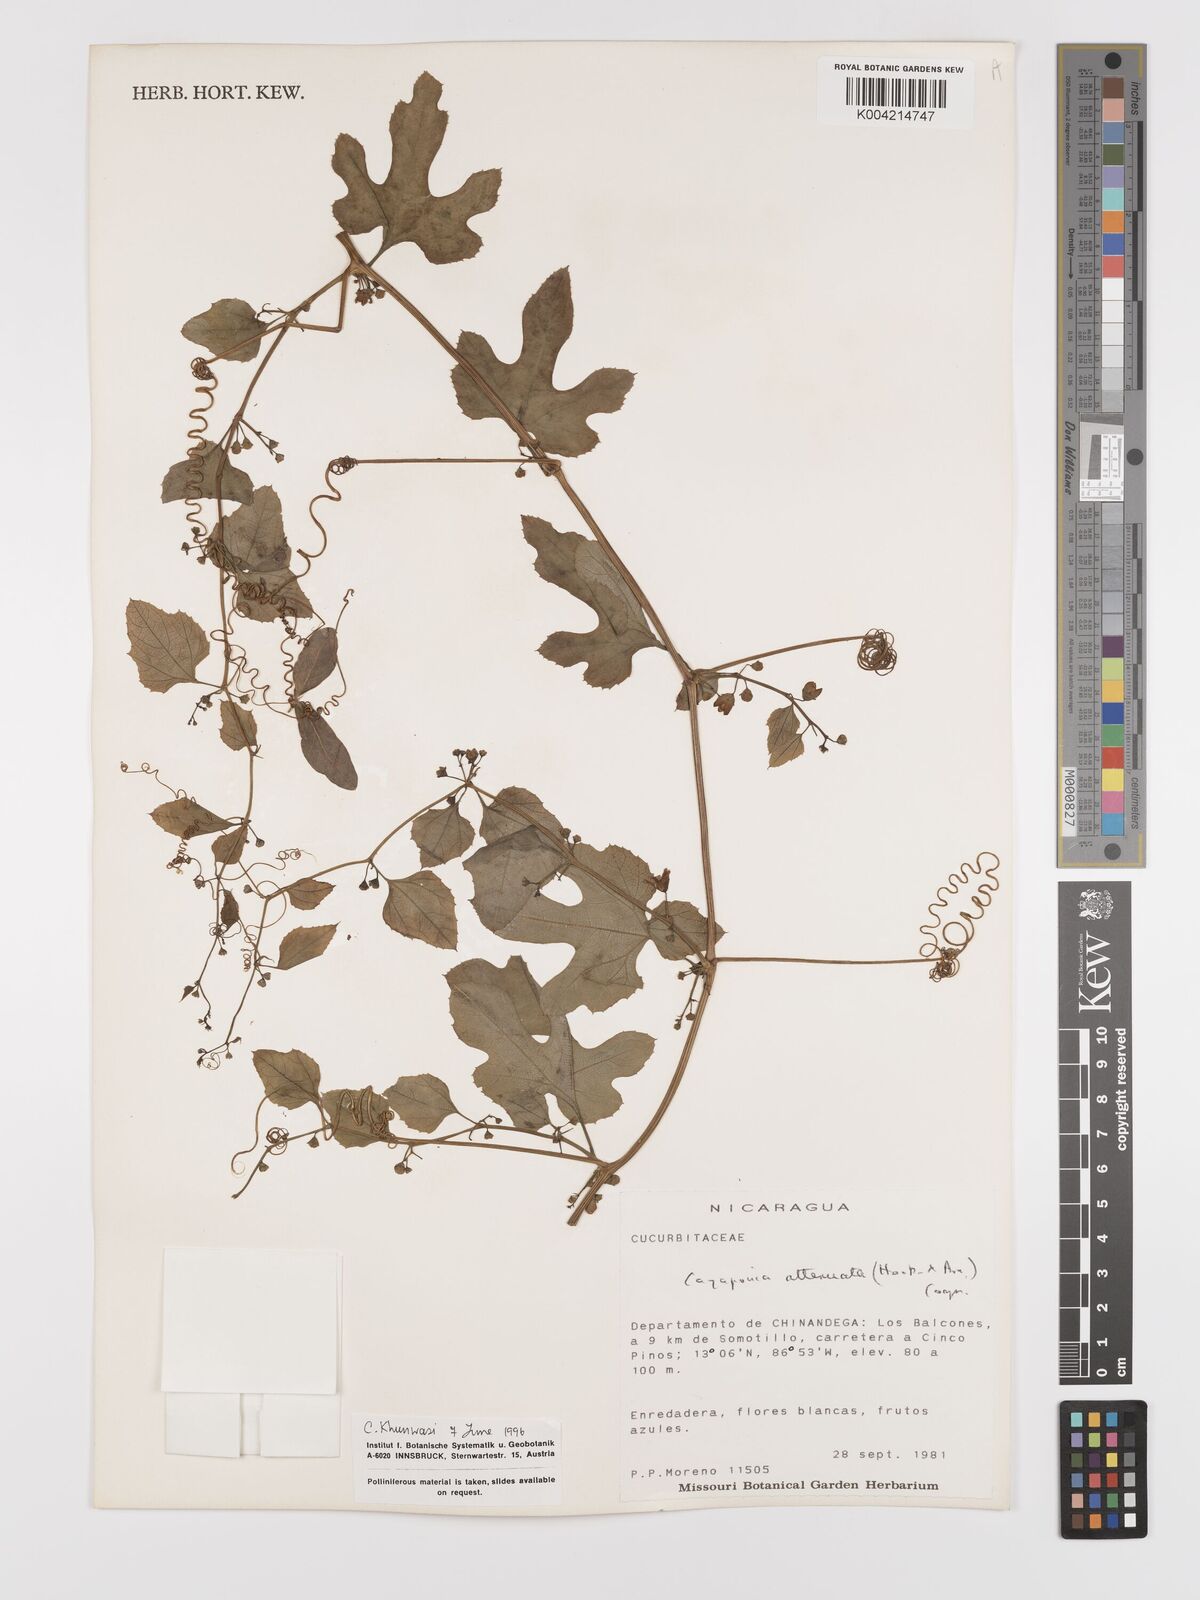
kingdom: Plantae
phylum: Tracheophyta
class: Magnoliopsida
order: Cucurbitales
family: Cucurbitaceae
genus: Cayaponia
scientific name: Cayaponia attenuata
